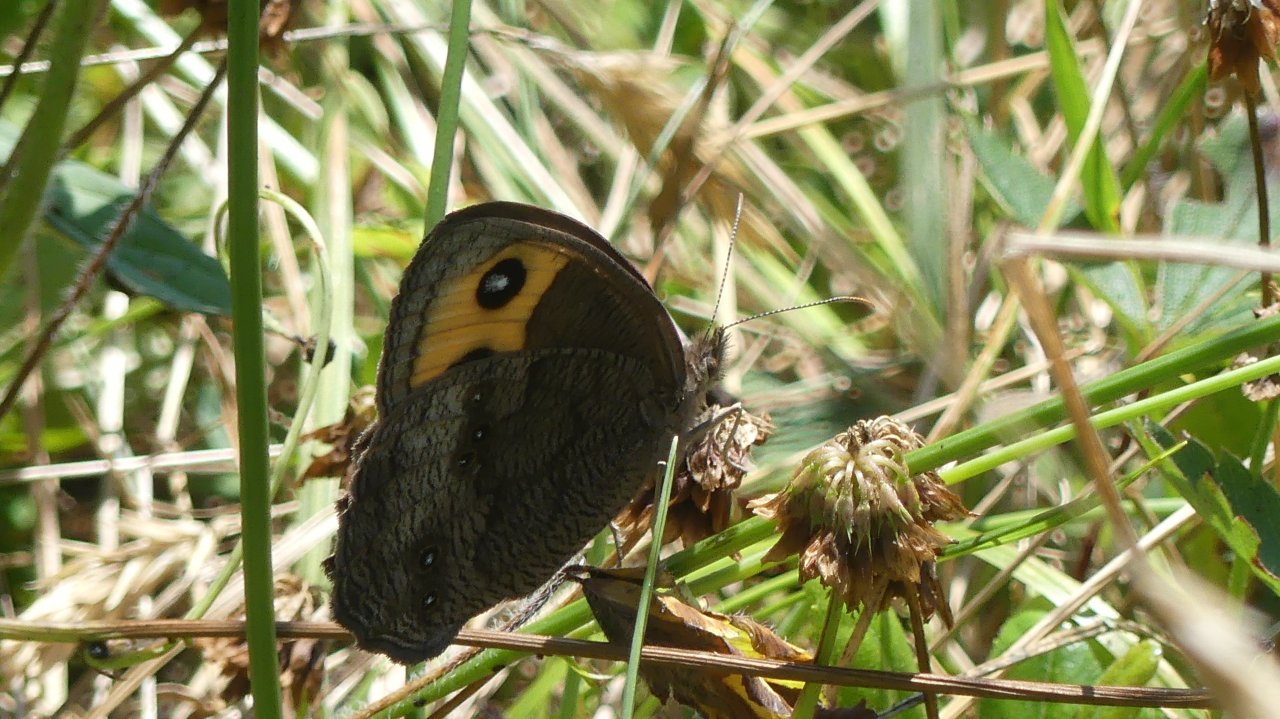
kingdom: Animalia
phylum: Arthropoda
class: Insecta
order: Lepidoptera
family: Nymphalidae
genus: Cercyonis
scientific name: Cercyonis pegala
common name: Common Wood-Nymph
